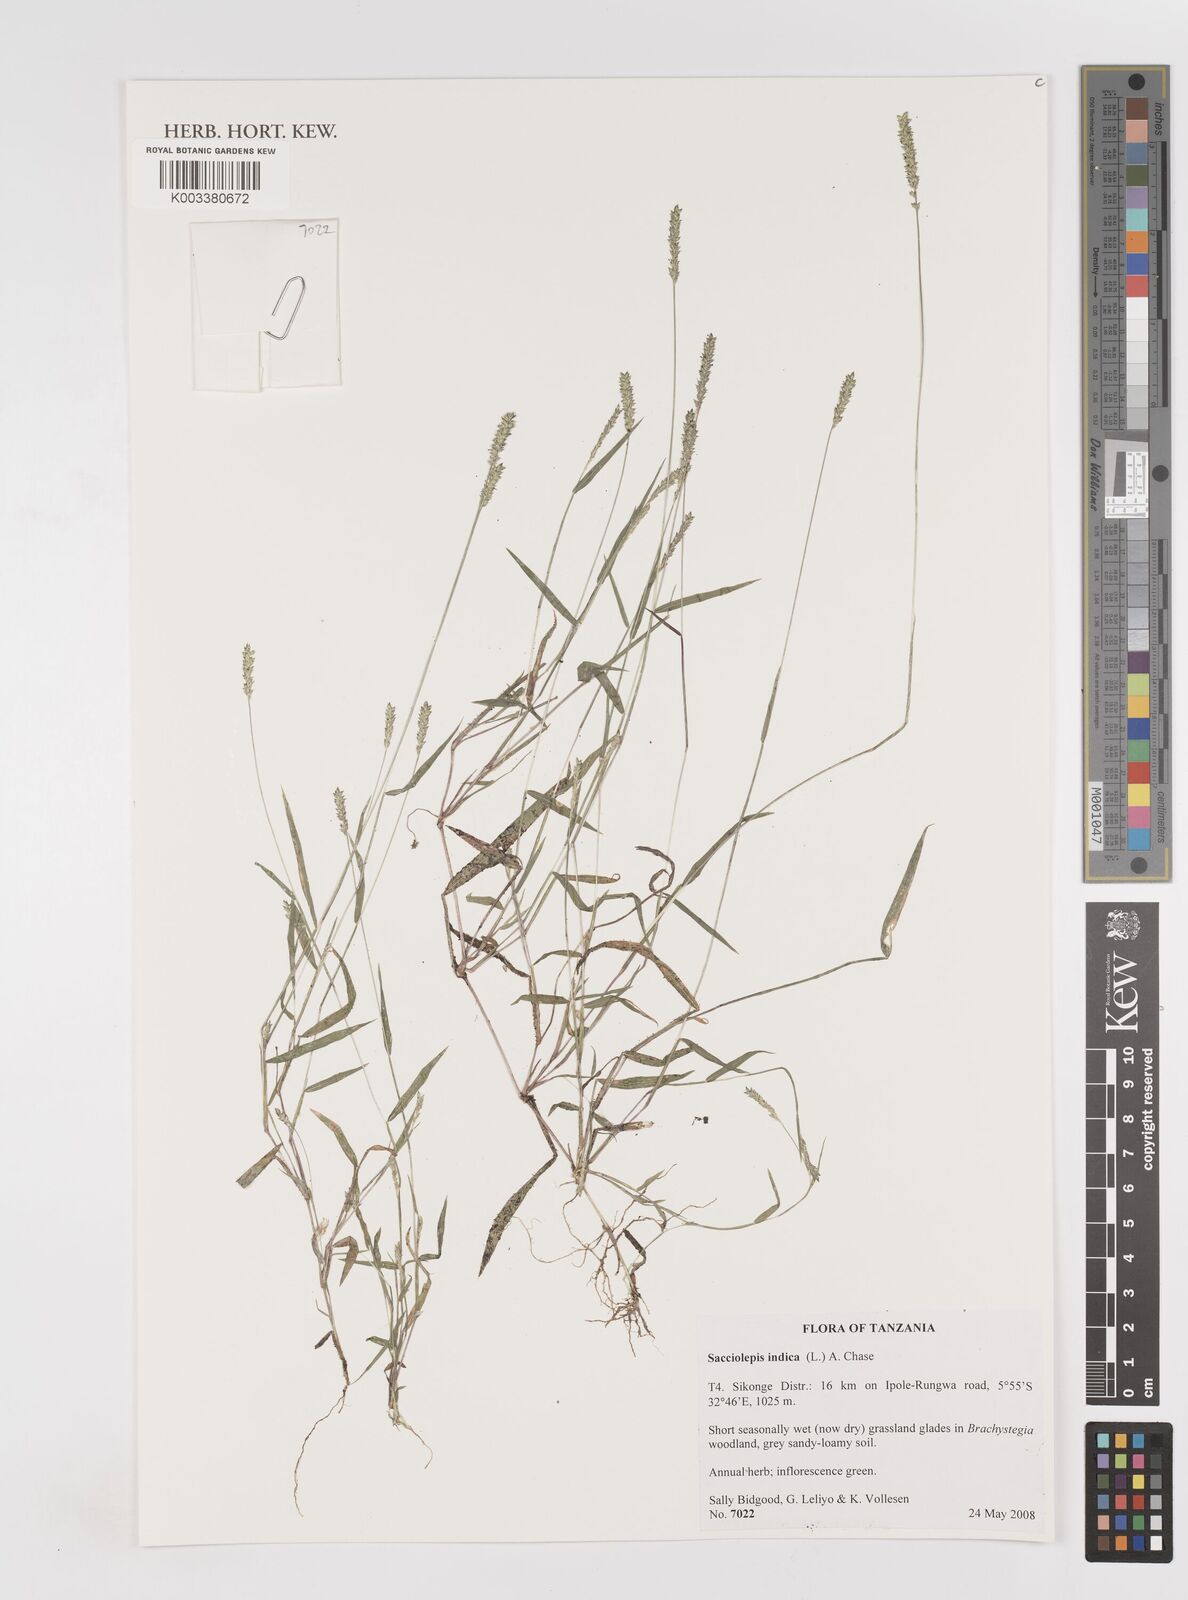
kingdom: Plantae
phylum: Tracheophyta
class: Liliopsida
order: Poales
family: Poaceae
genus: Sacciolepis
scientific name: Sacciolepis indica
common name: Glenwoodgrass
